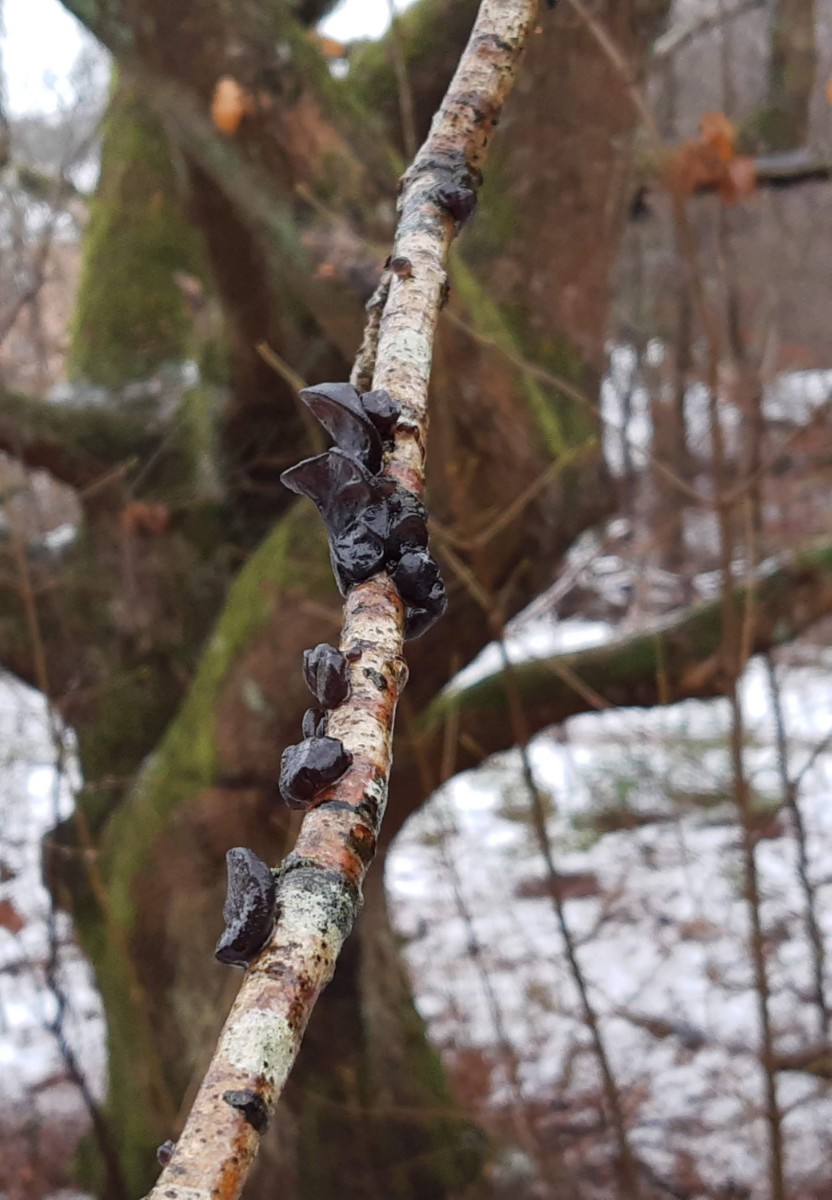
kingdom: Fungi
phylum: Basidiomycota
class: Agaricomycetes
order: Auriculariales
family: Auriculariaceae
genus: Exidia
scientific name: Exidia glandulosa
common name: ege-bævretop
